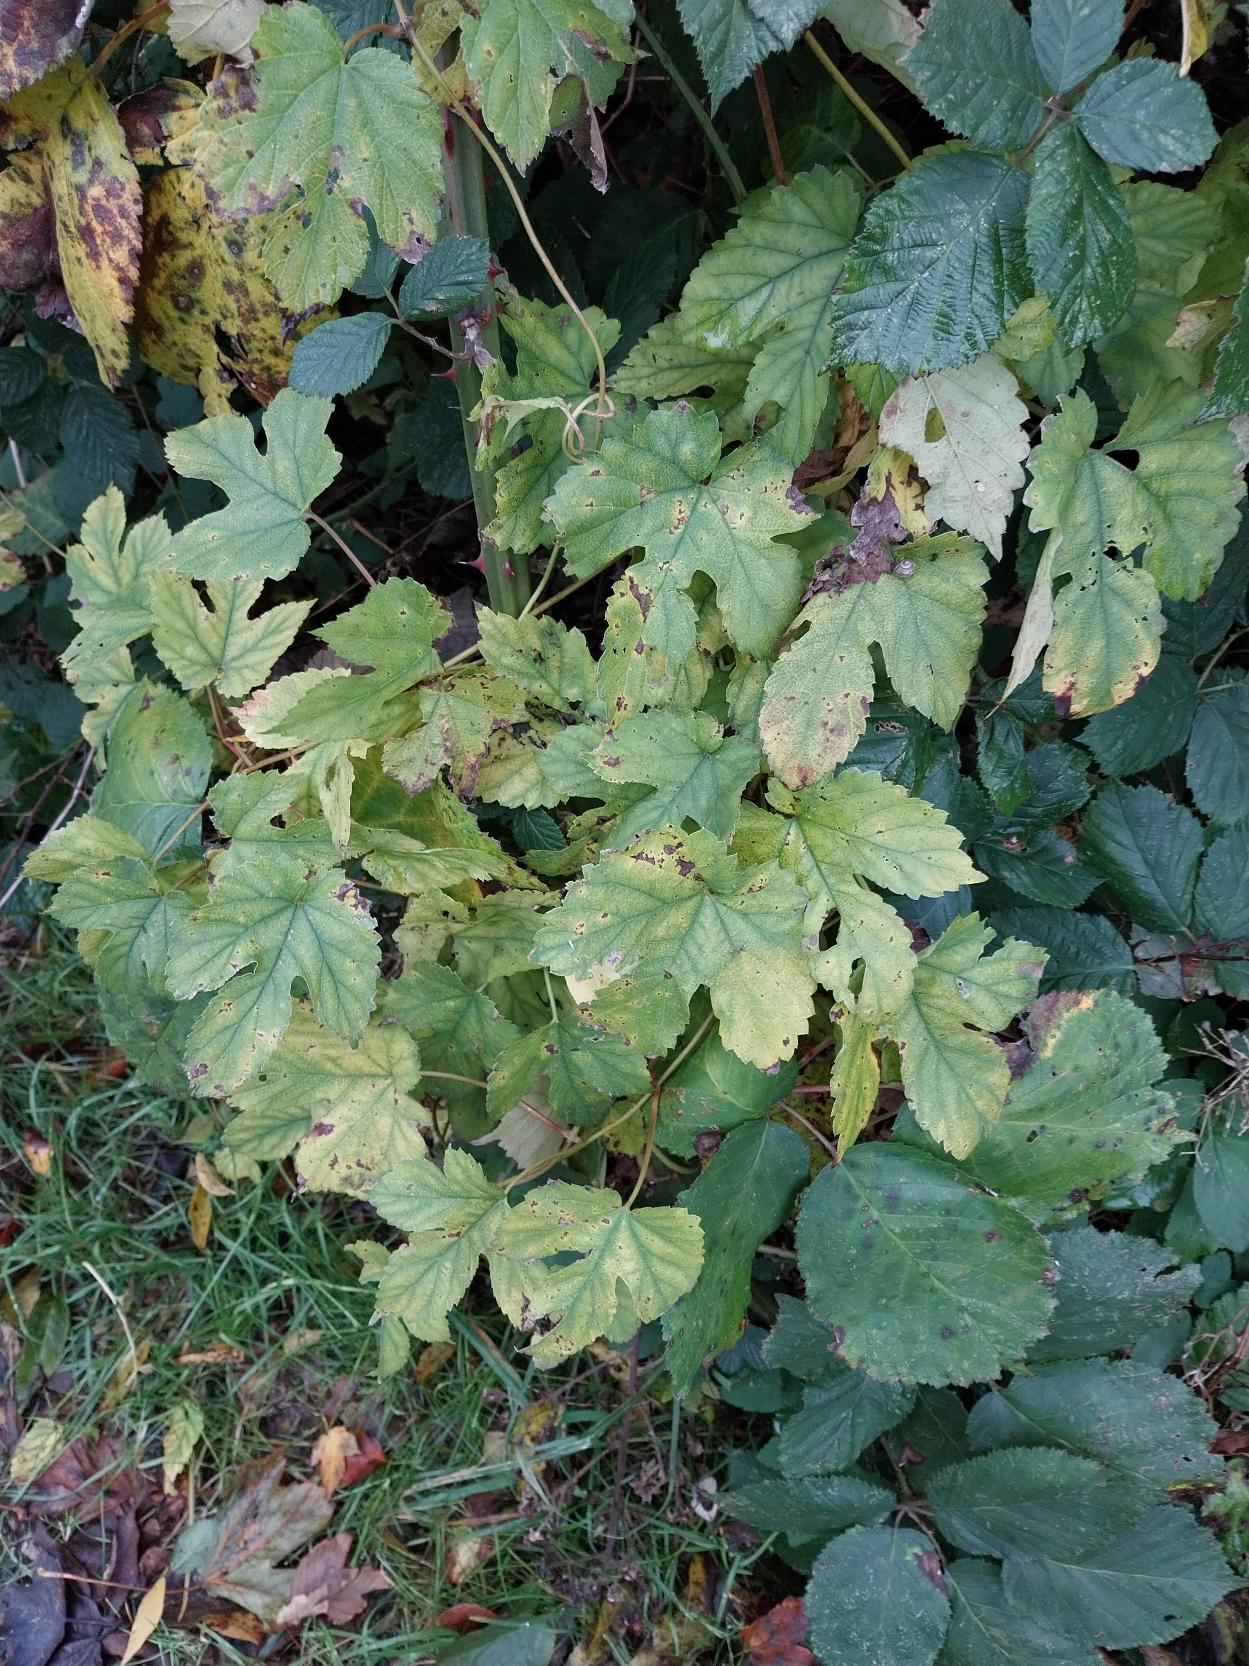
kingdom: Plantae
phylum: Tracheophyta
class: Magnoliopsida
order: Rosales
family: Cannabaceae
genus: Humulus
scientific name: Humulus lupulus
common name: Humle
